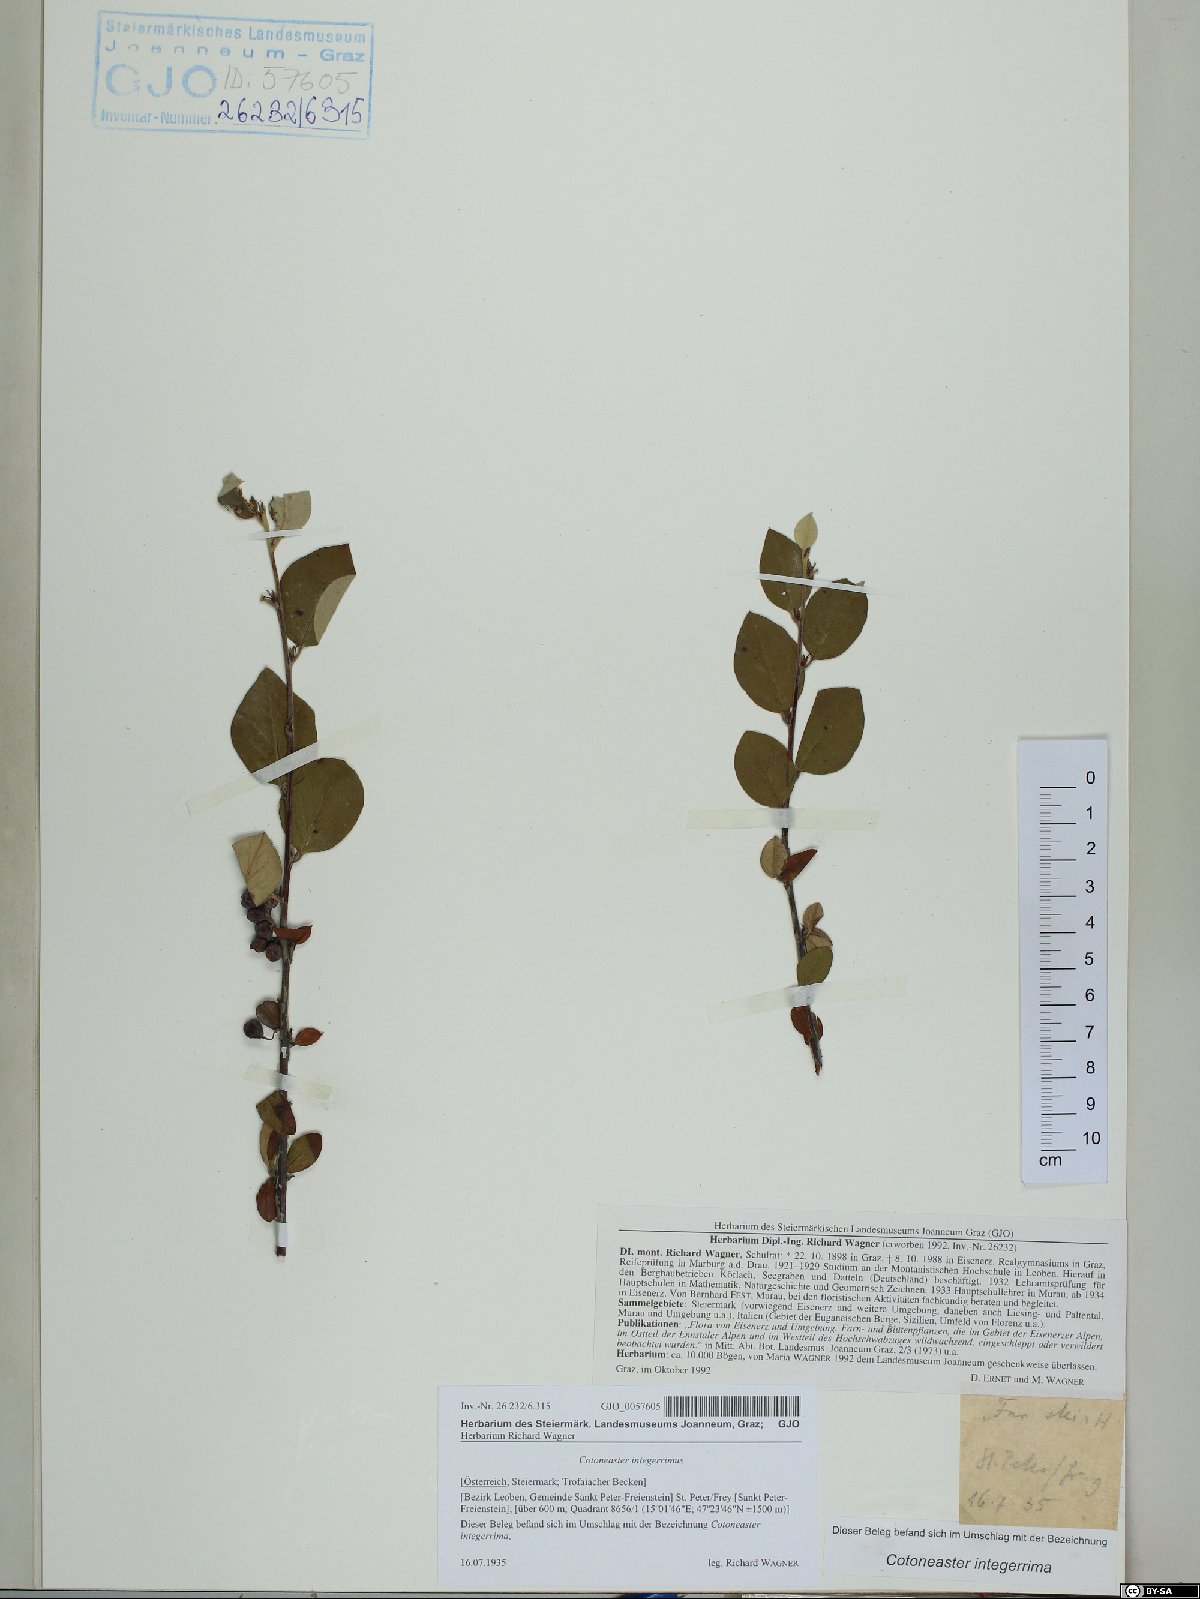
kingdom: Plantae
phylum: Tracheophyta
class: Magnoliopsida
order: Rosales
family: Rosaceae
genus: Cotoneaster
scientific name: Cotoneaster integerrimus
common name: Wild cotoneaster
